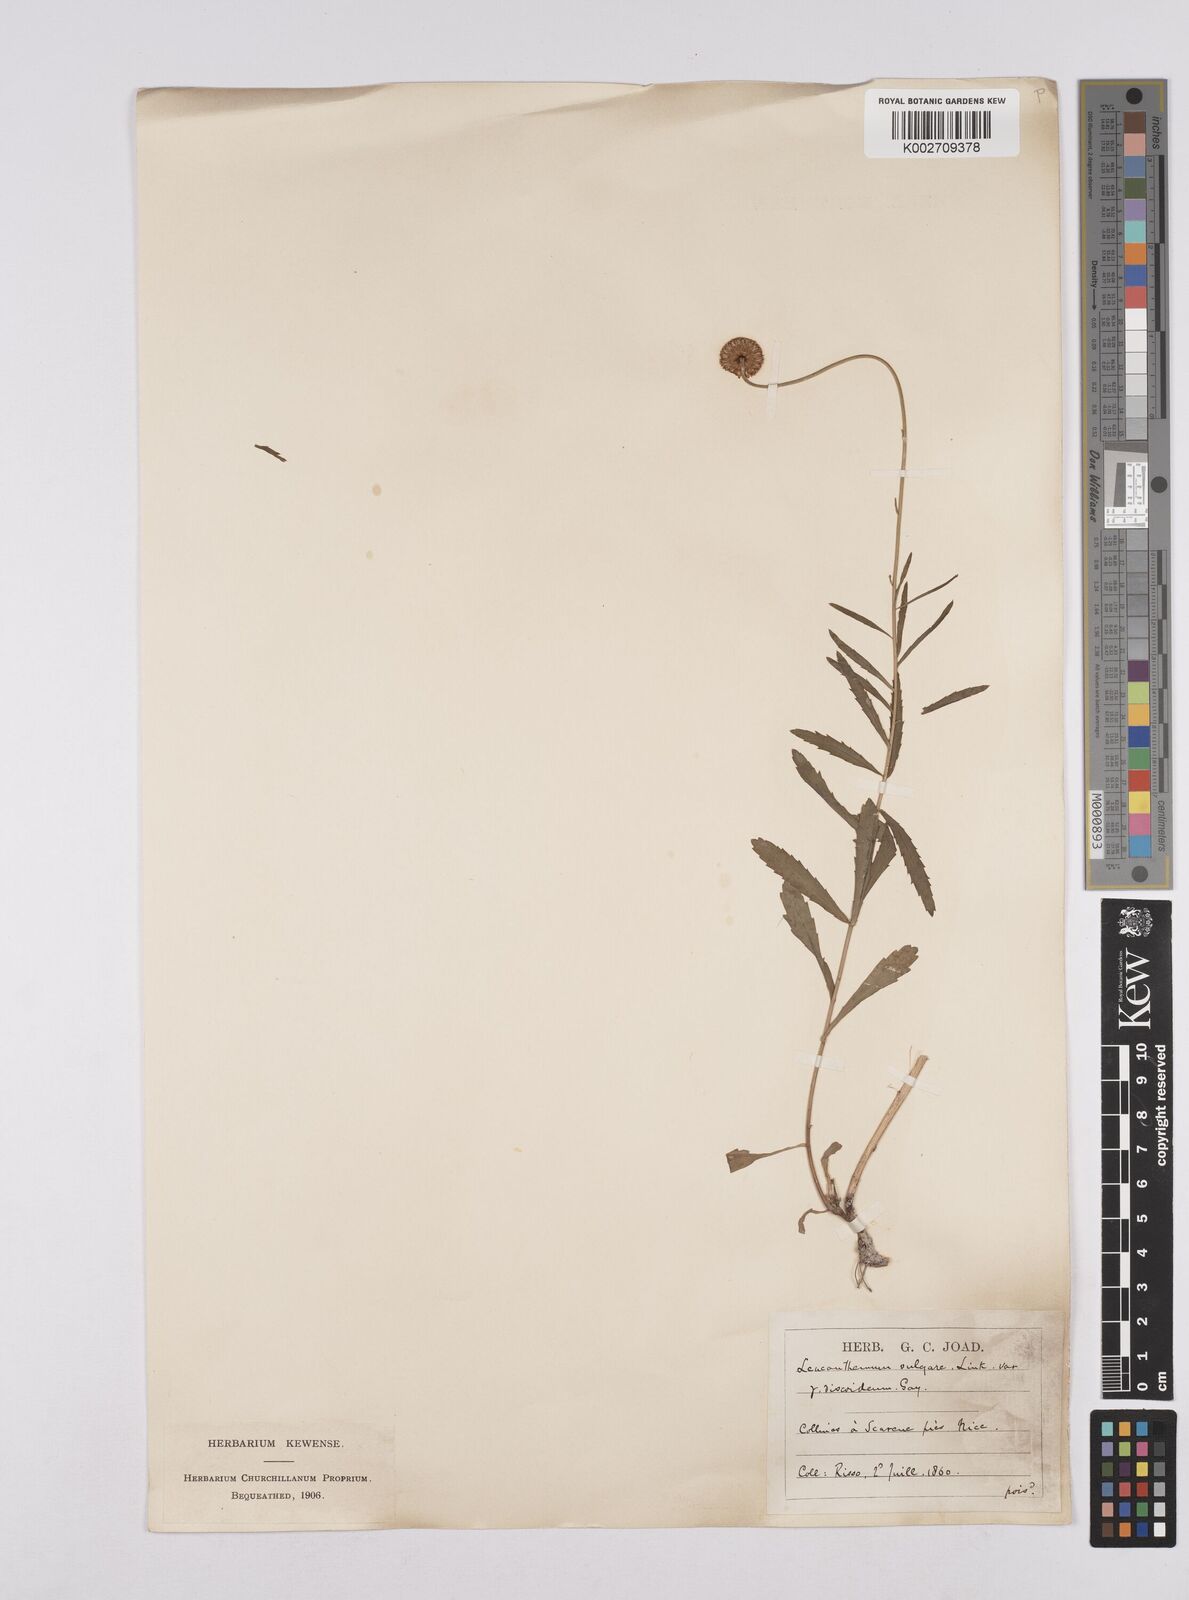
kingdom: Plantae
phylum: Tracheophyta
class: Magnoliopsida
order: Asterales
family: Asteraceae
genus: Leucanthemum
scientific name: Leucanthemum vulgare
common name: Oxeye daisy
